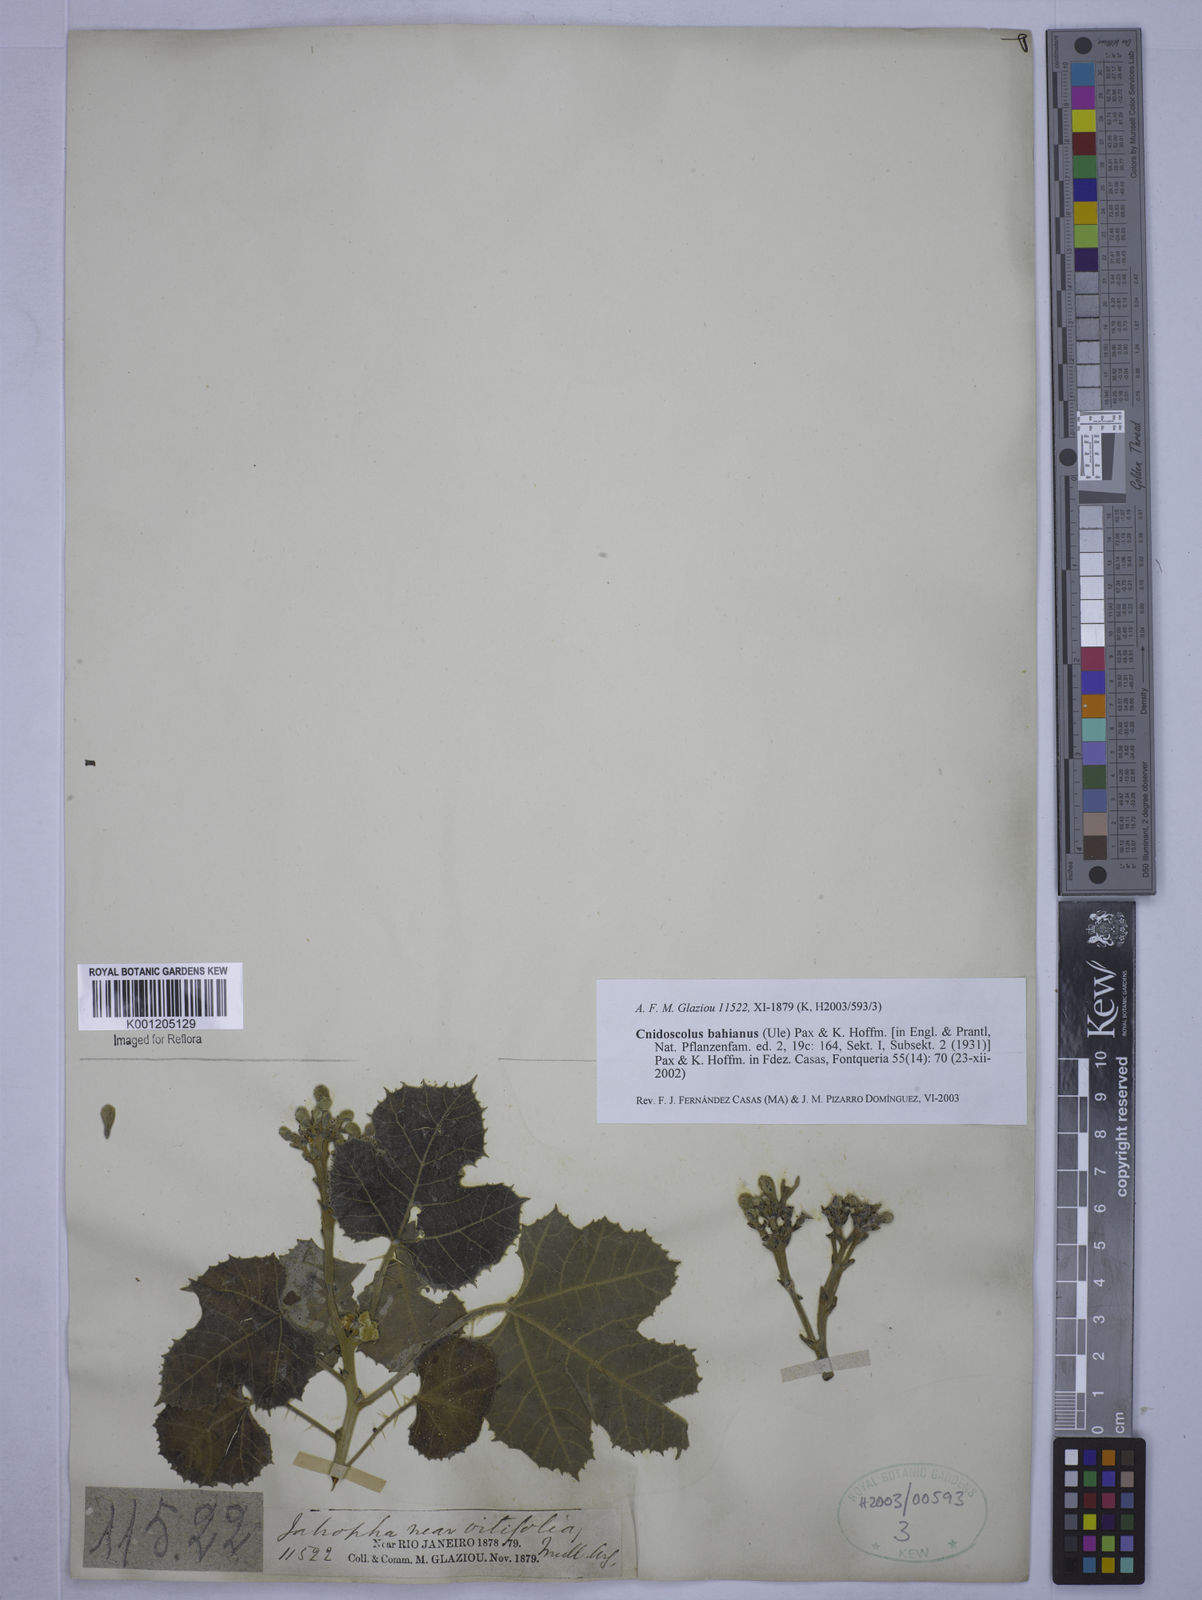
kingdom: Plantae
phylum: Tracheophyta
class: Magnoliopsida
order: Malpighiales
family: Euphorbiaceae
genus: Cnidoscolus
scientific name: Cnidoscolus bahianus
